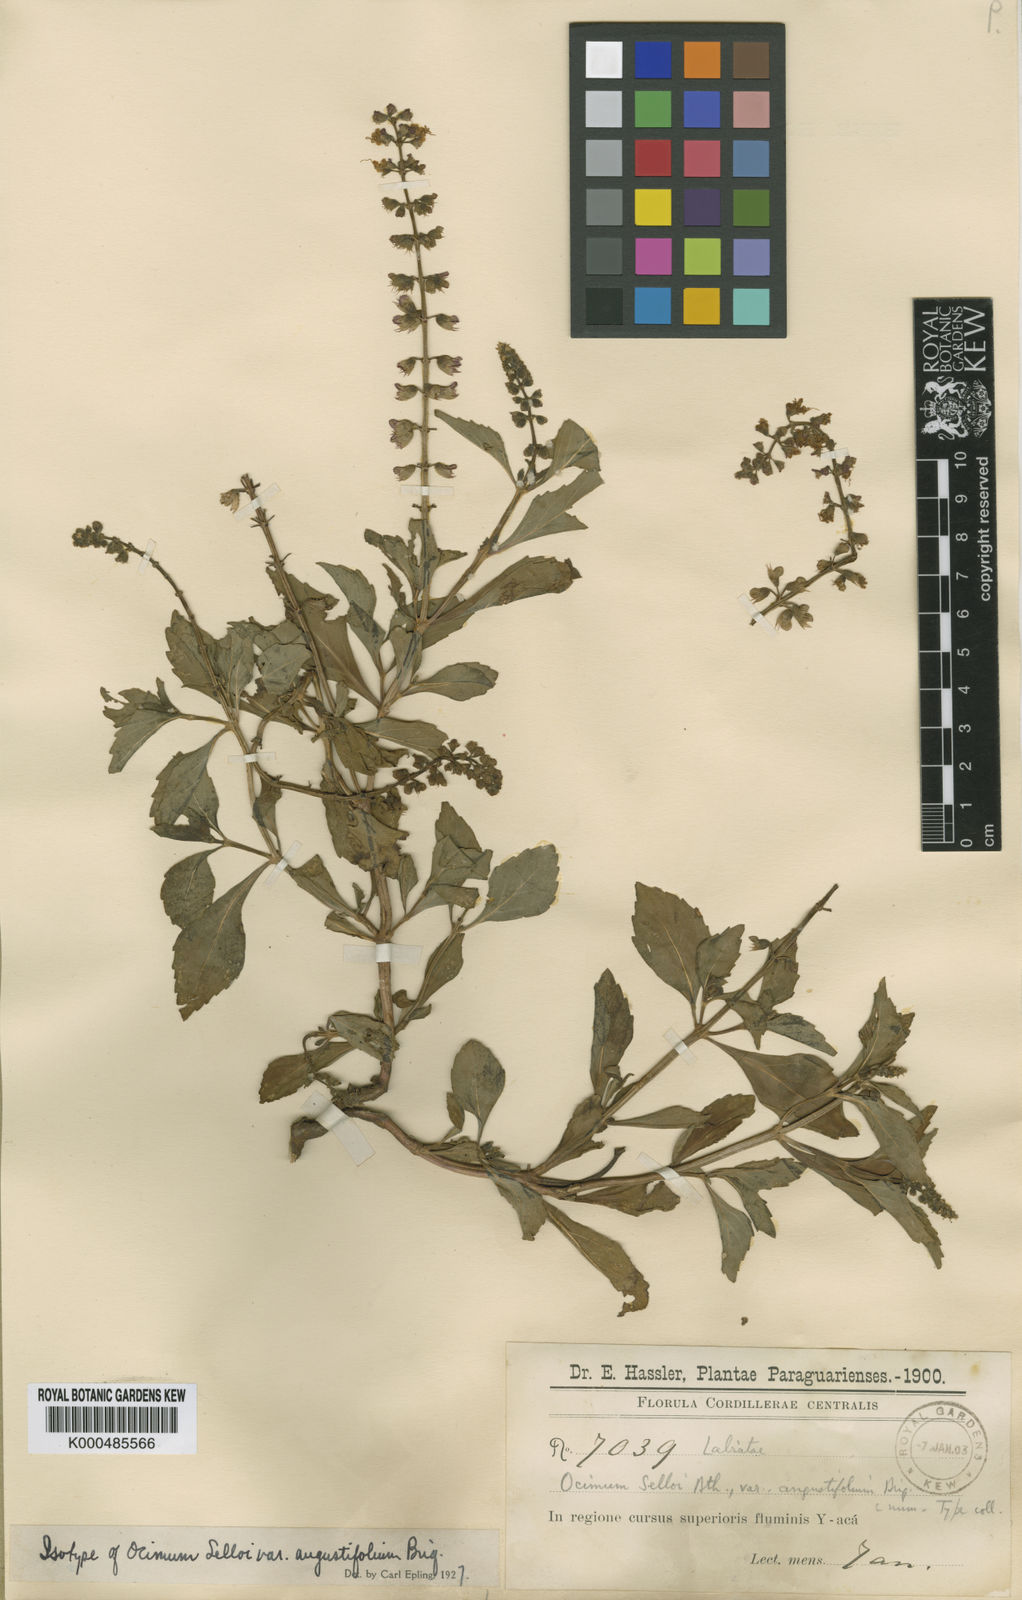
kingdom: Plantae
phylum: Tracheophyta
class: Magnoliopsida
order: Lamiales
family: Lamiaceae
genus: Ocimum
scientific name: Ocimum carnosum
